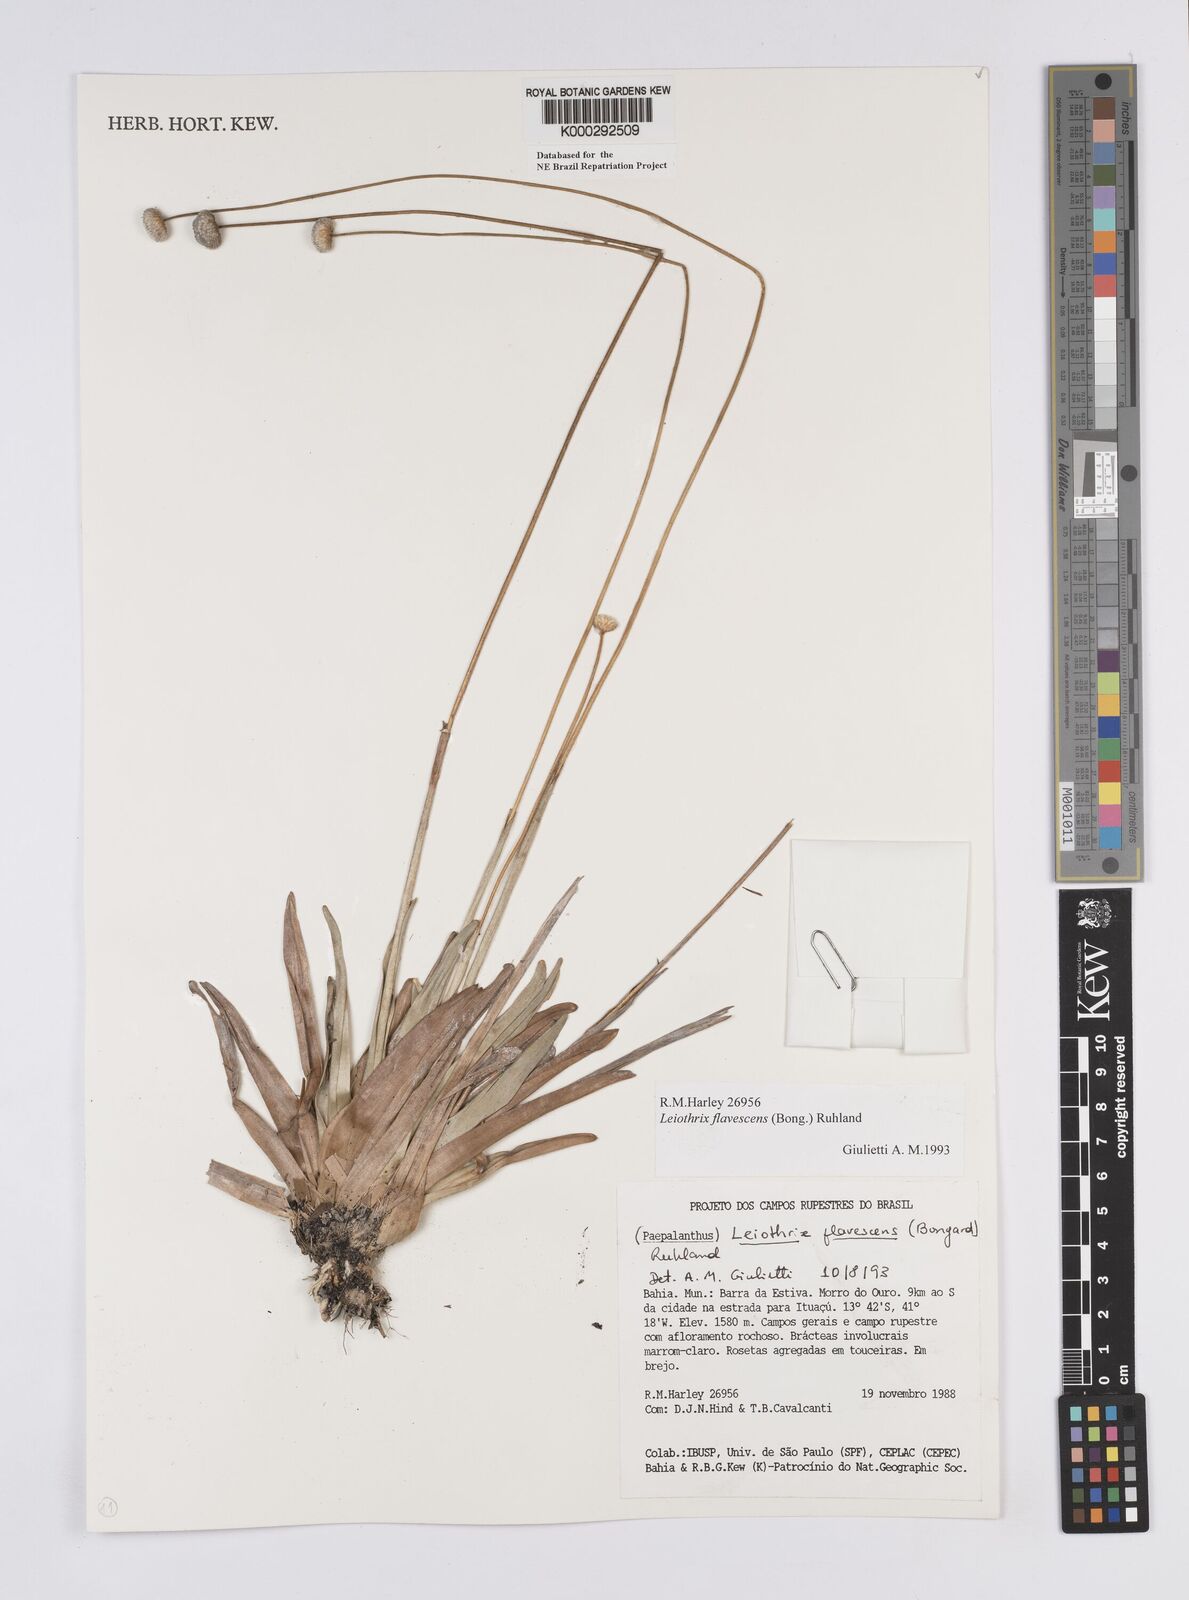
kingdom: Plantae
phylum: Tracheophyta
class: Liliopsida
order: Poales
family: Eriocaulaceae
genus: Leiothrix
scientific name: Leiothrix flavescens
